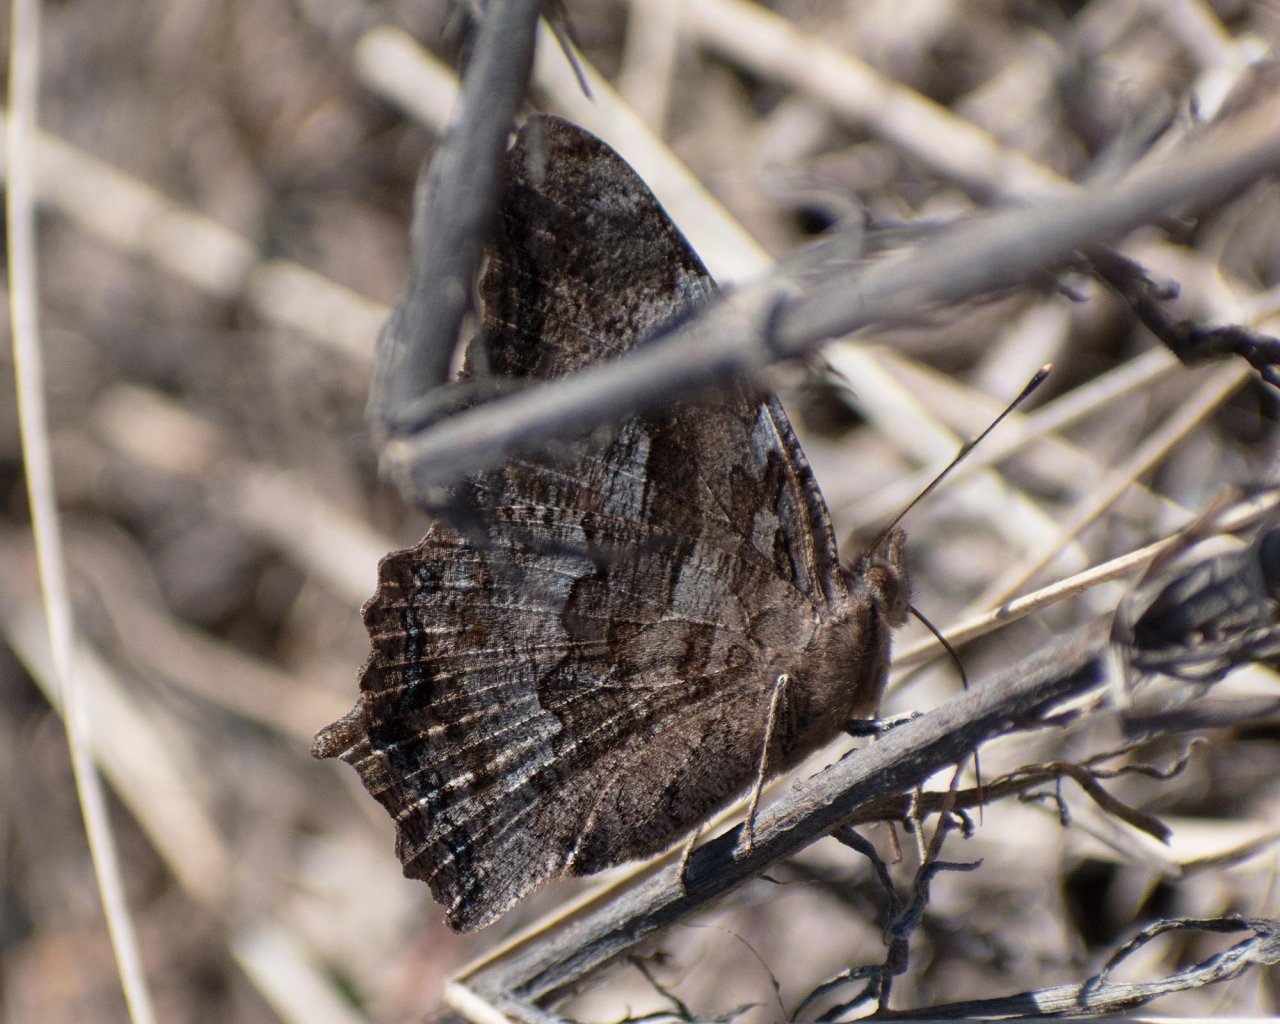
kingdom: Animalia
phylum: Arthropoda
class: Insecta
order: Lepidoptera
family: Nymphalidae
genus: Polygonia
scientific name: Polygonia vaualbum
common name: Compton Tortoiseshell
